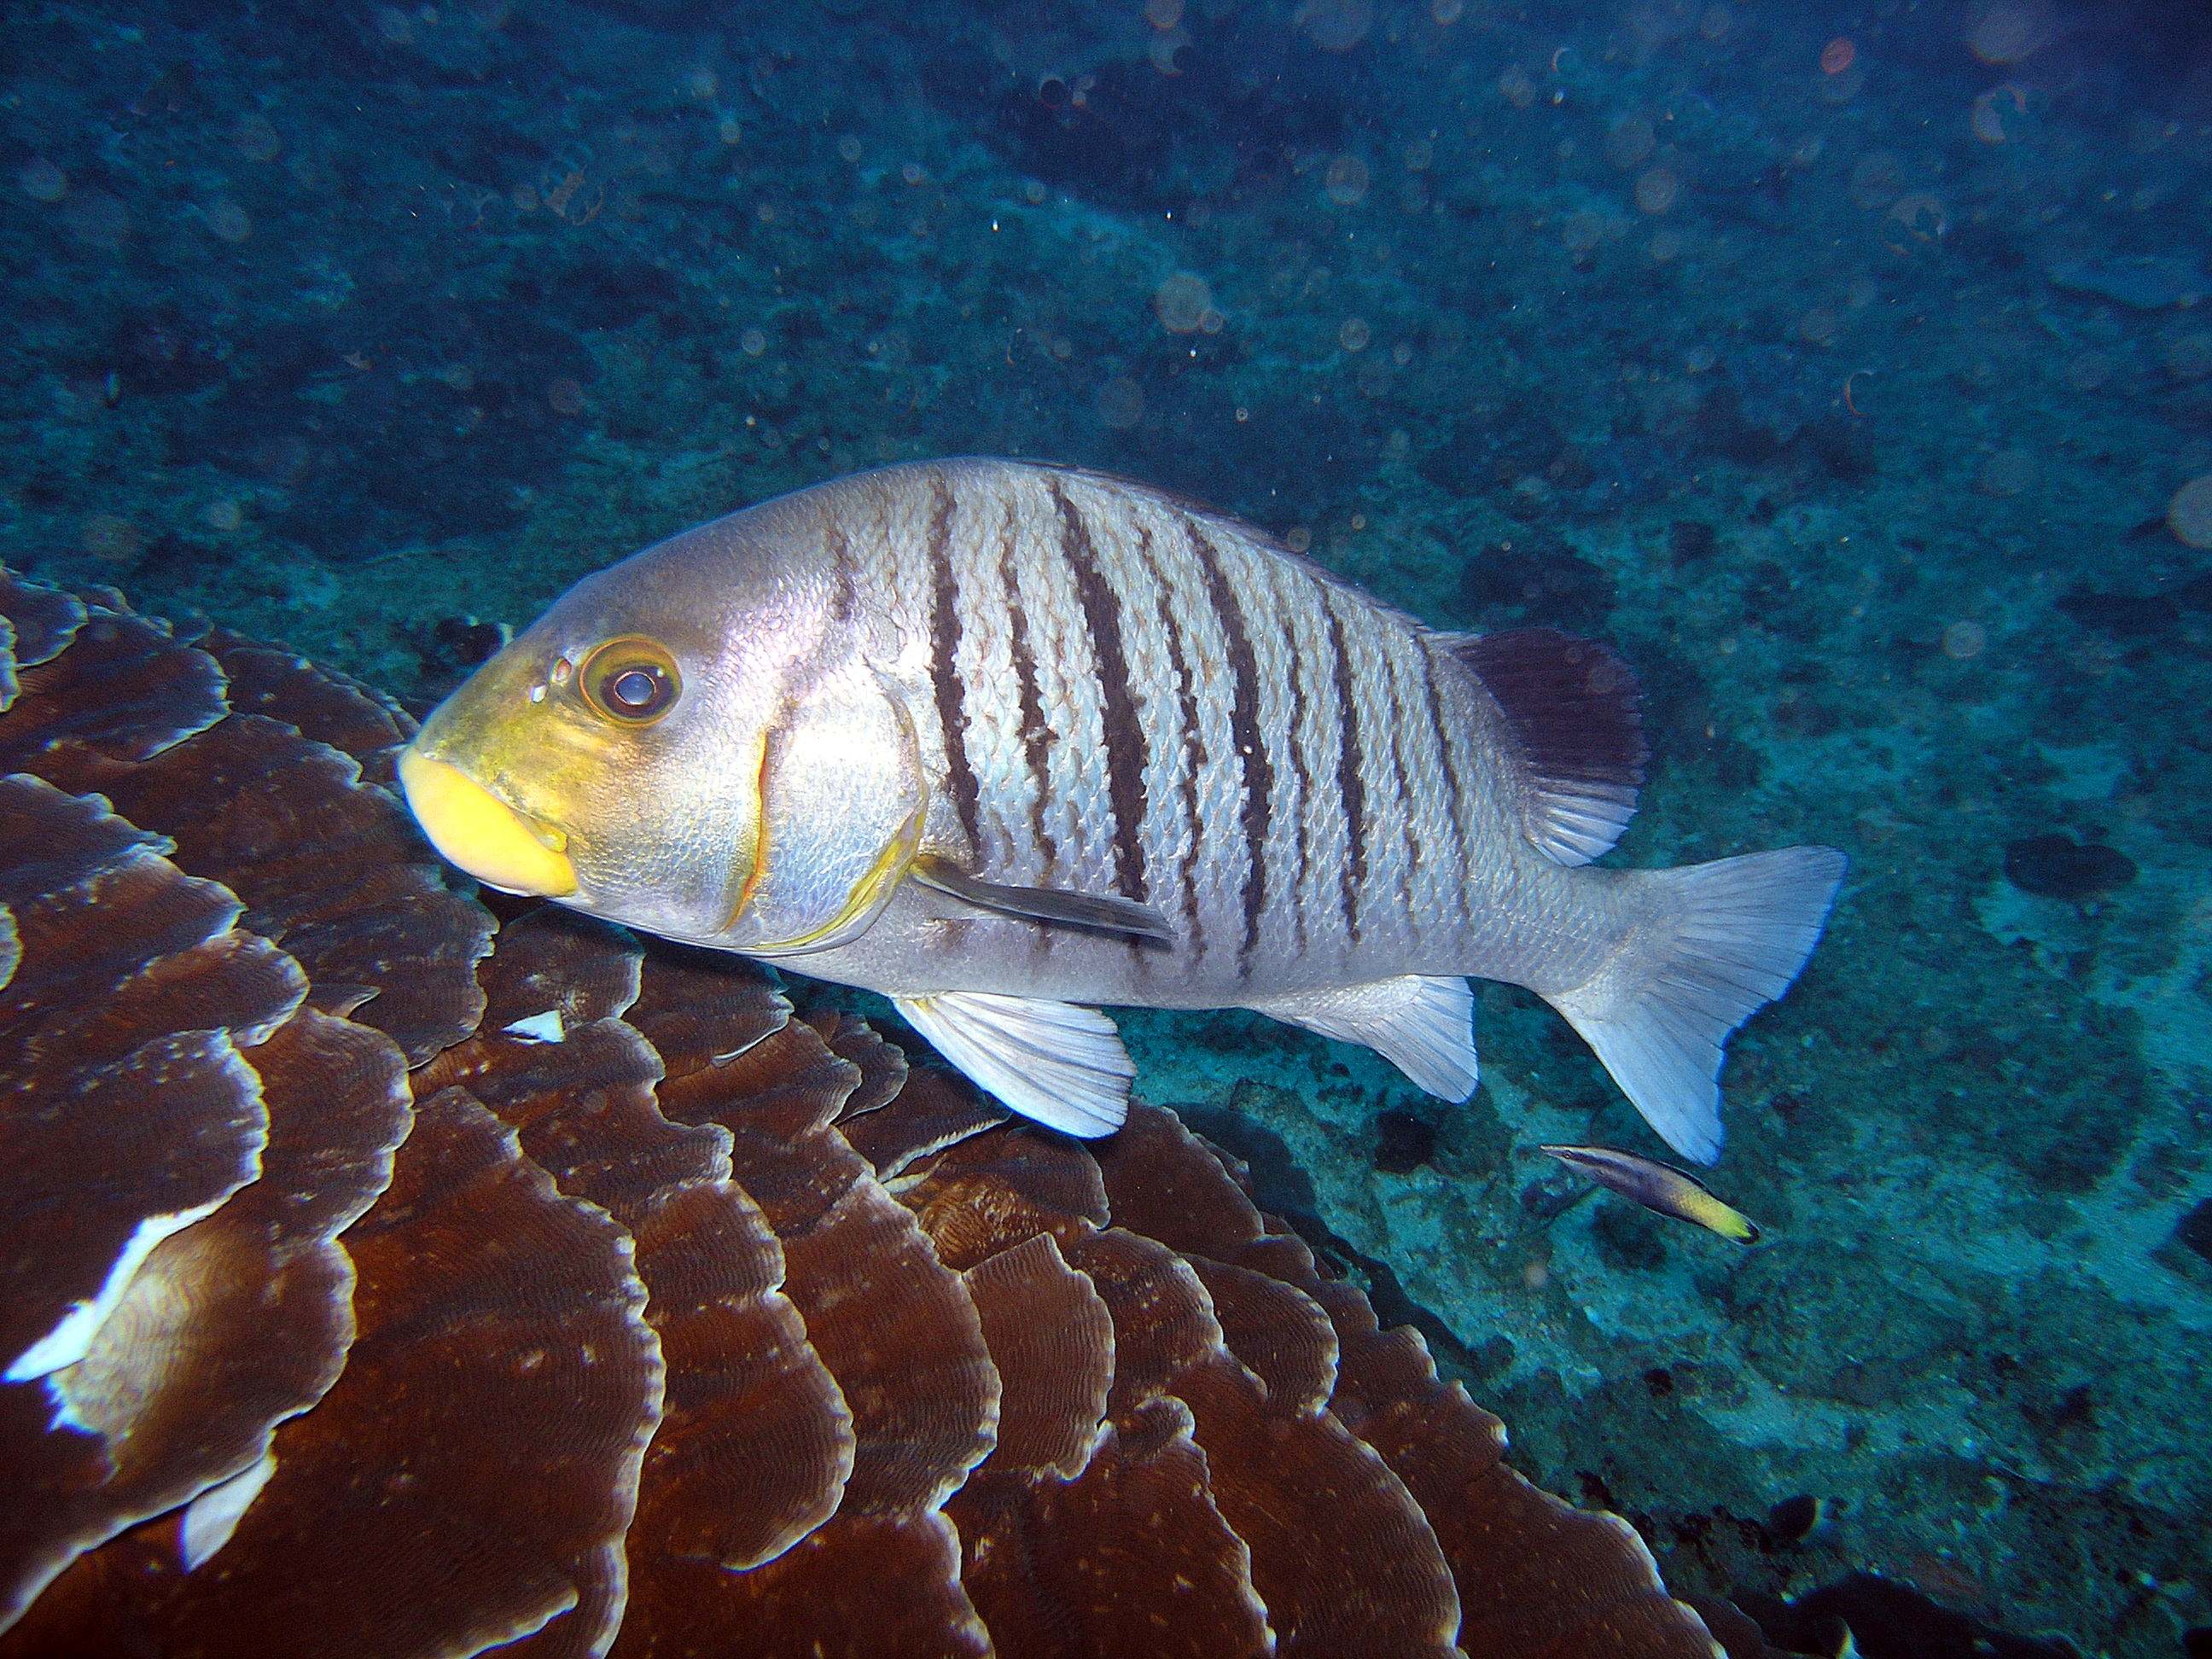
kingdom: Animalia
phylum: Chordata
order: Perciformes
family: Haemulidae
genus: Plectorhinchus
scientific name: Plectorhinchus plagiodesmus
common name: Barred rubberlip
